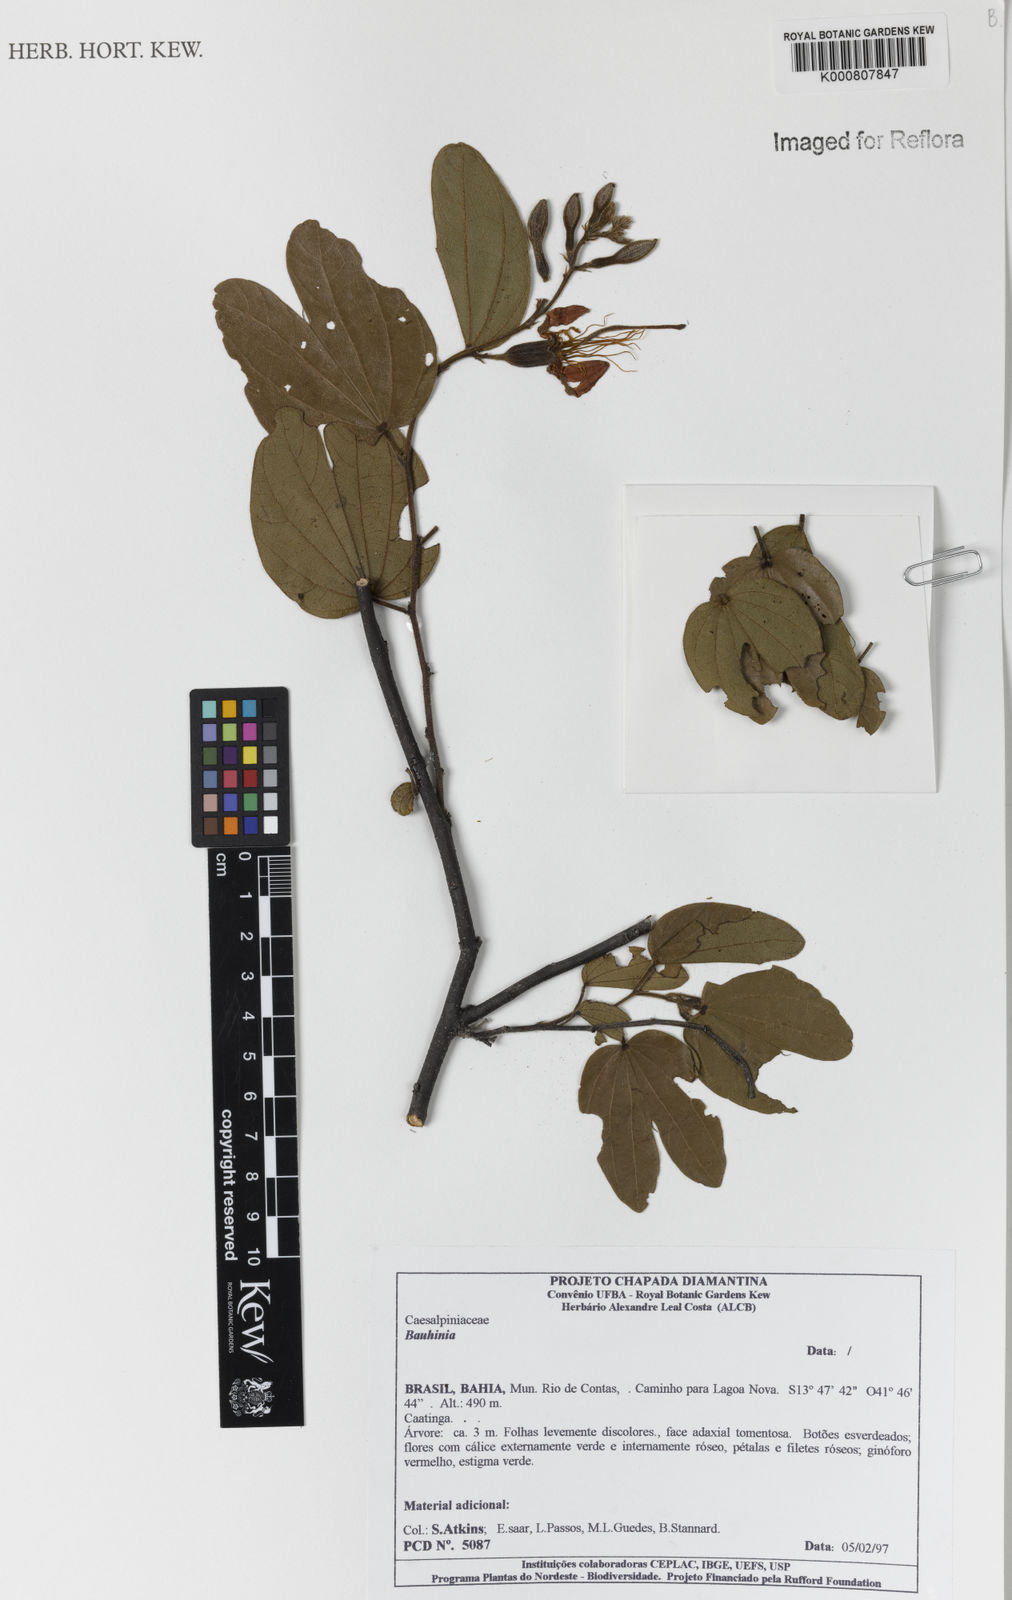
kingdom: Plantae
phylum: Tracheophyta
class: Magnoliopsida
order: Fabales
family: Fabaceae
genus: Bauhinia
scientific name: Bauhinia
